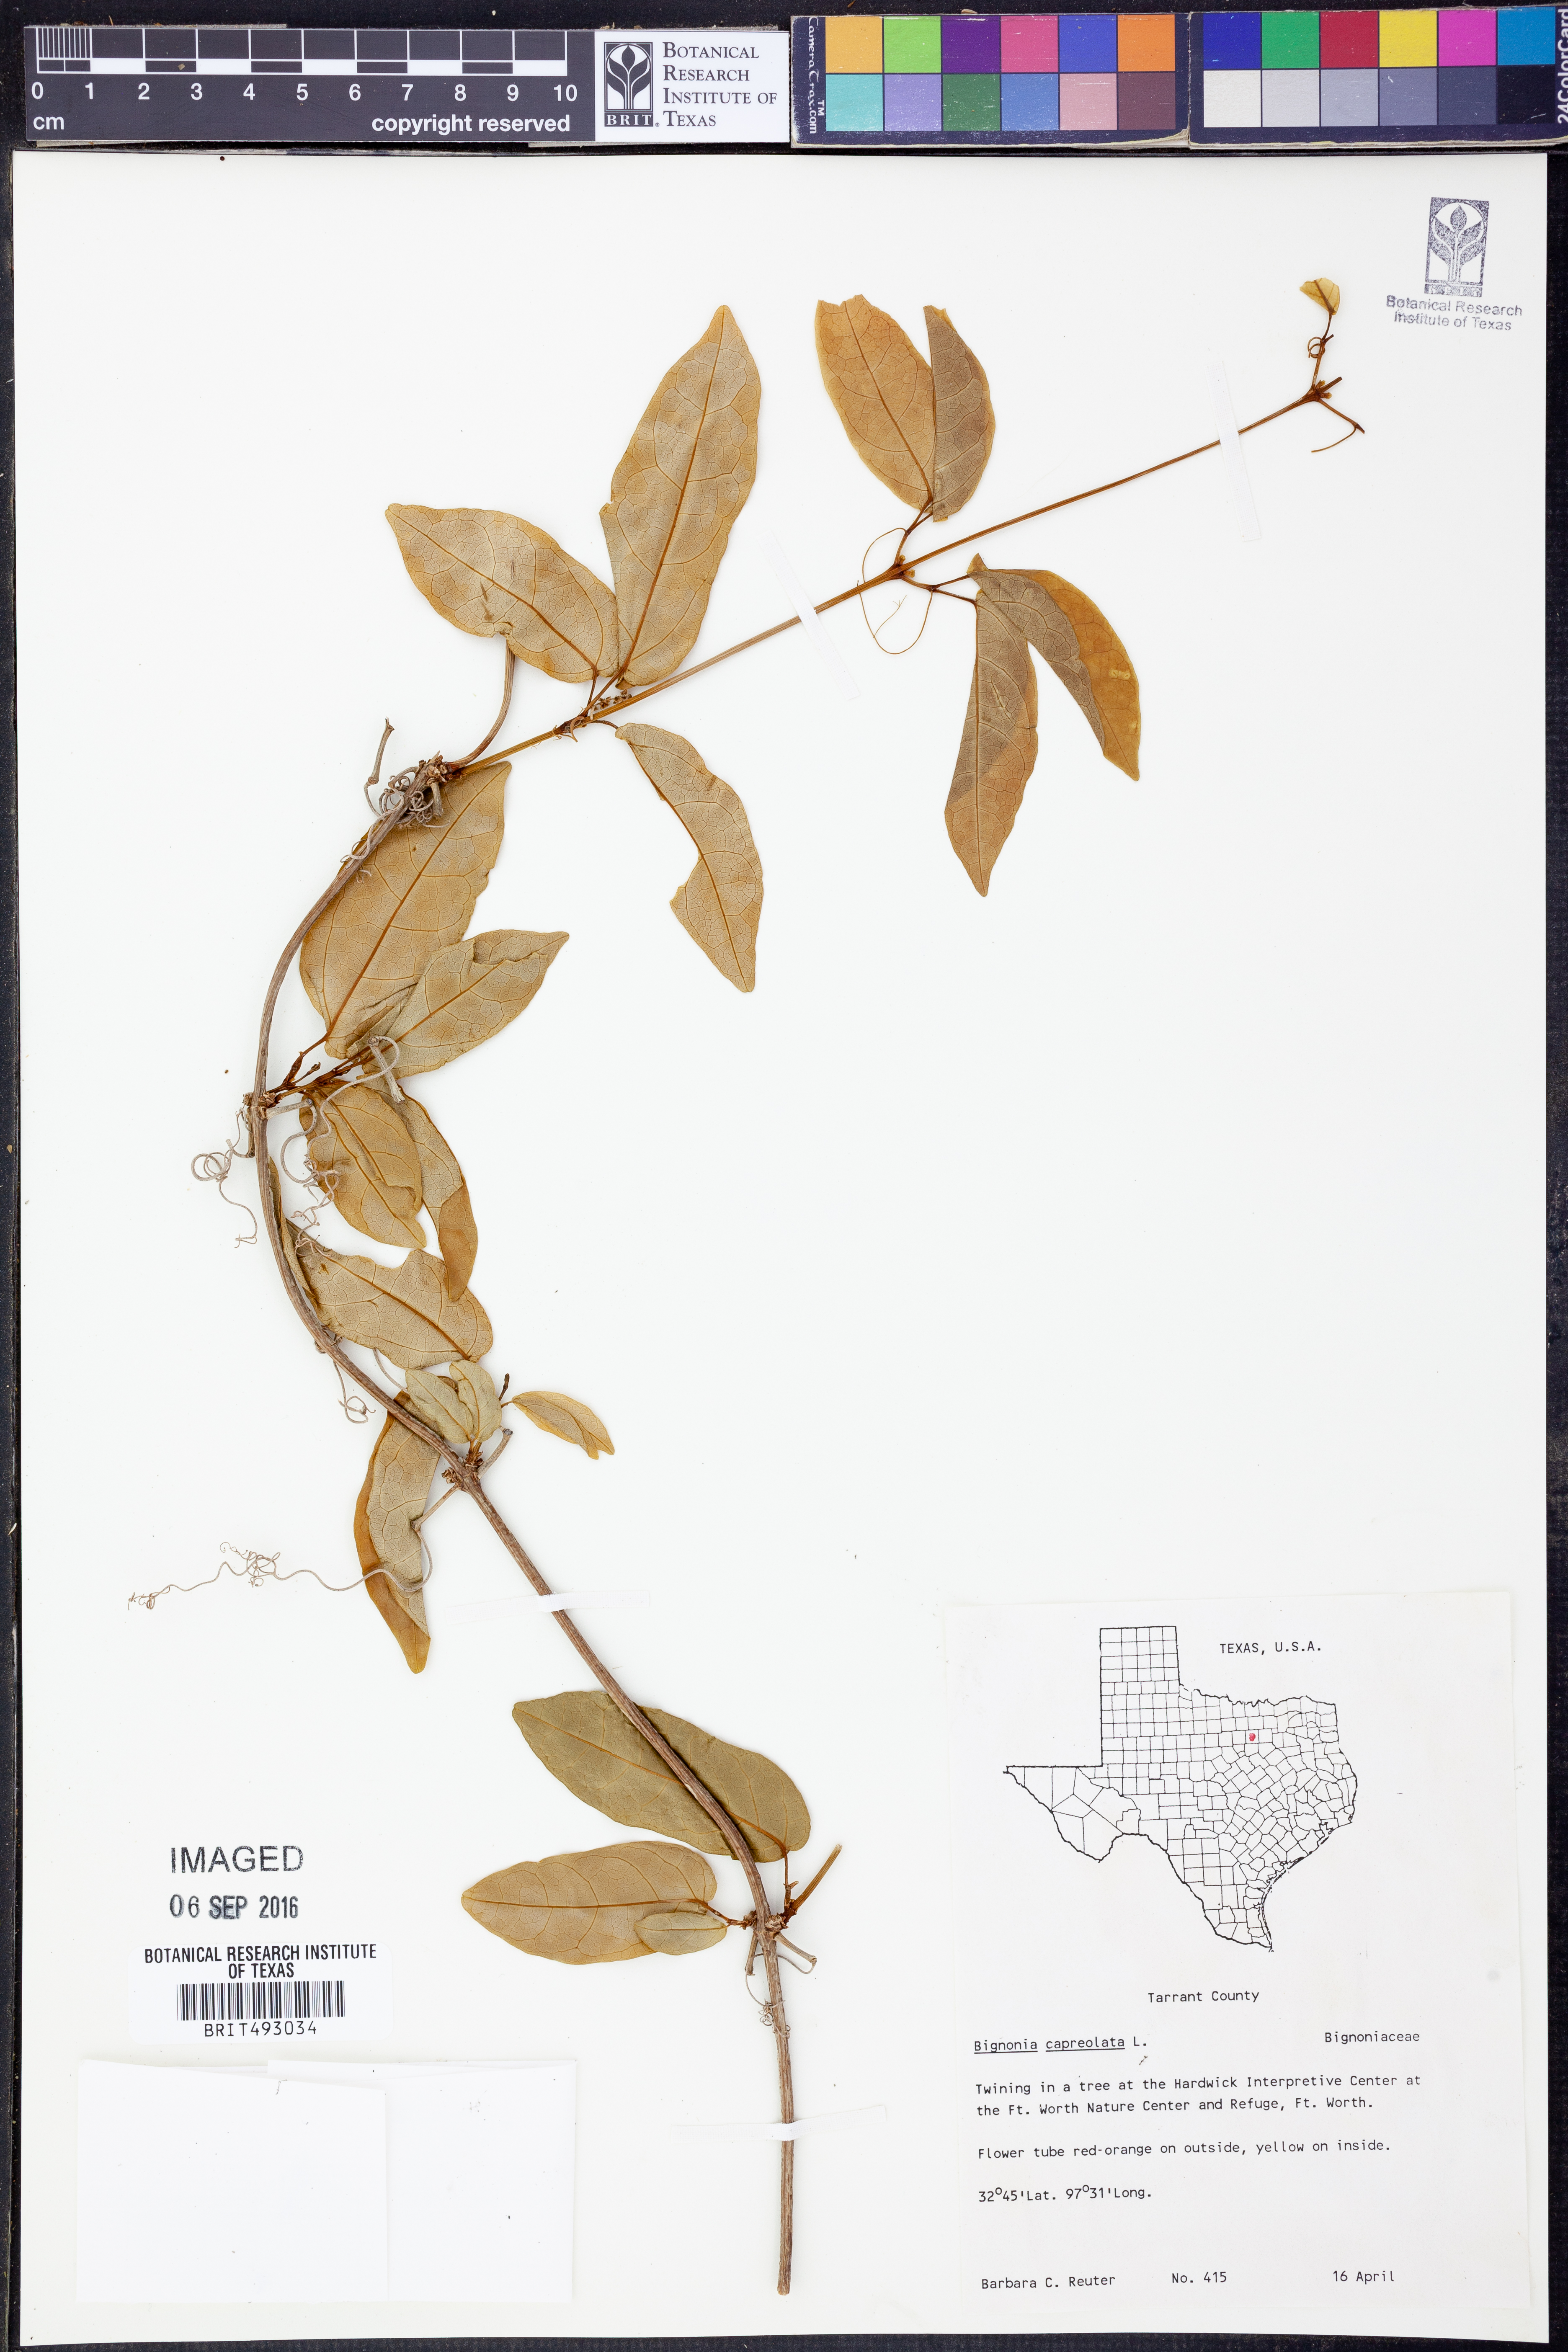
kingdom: Plantae
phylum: Tracheophyta
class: Magnoliopsida
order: Lamiales
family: Bignoniaceae
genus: Bignonia
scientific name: Bignonia capreolata
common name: Crossvine
